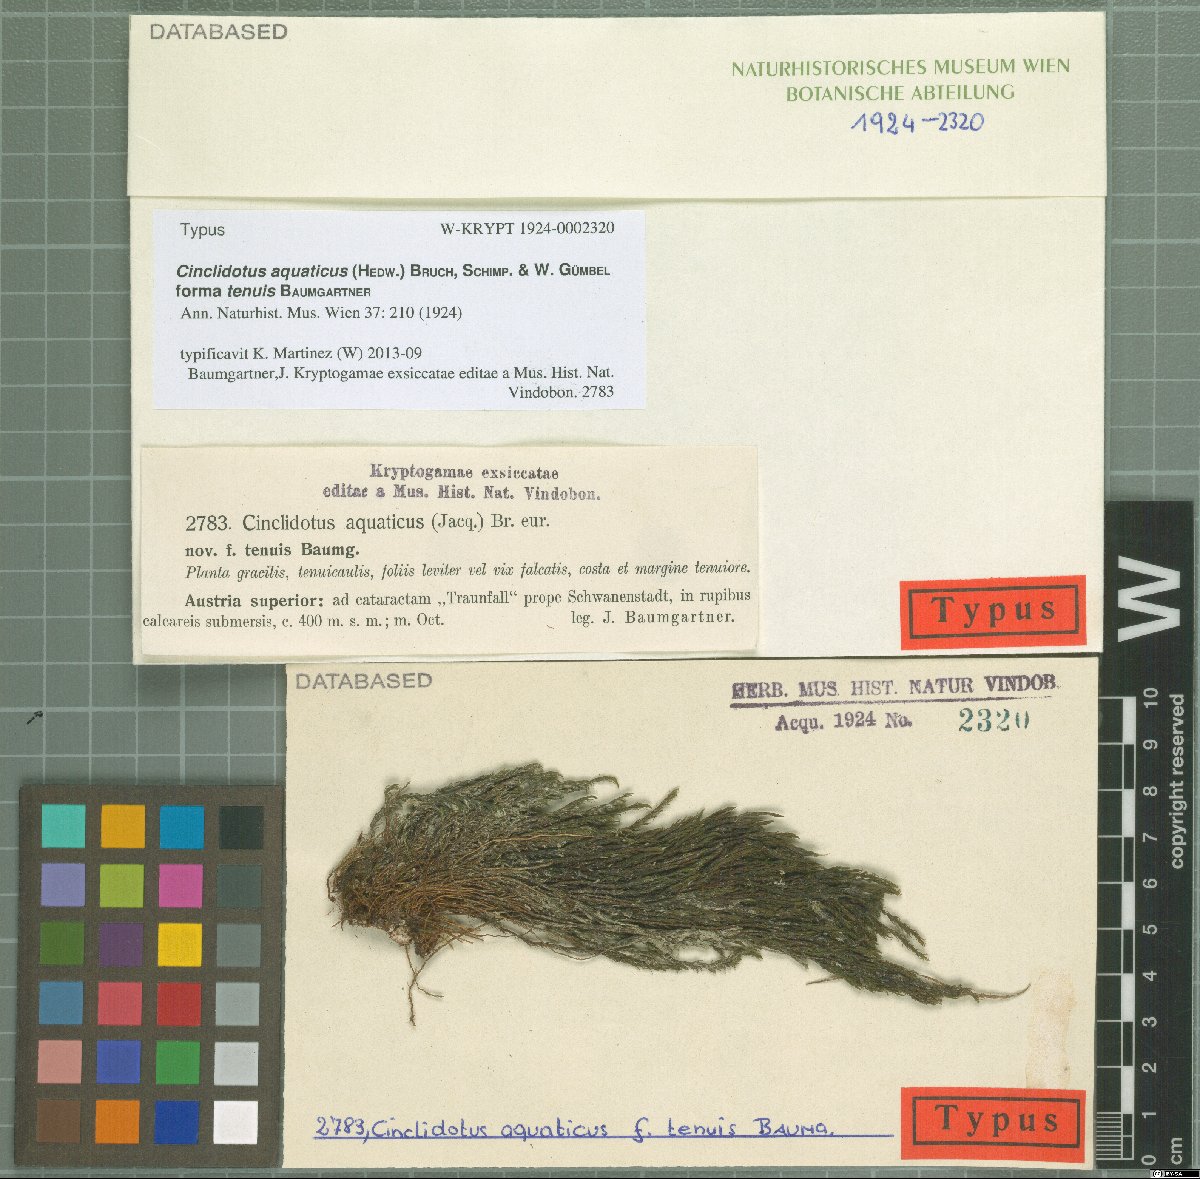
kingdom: Plantae
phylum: Bryophyta
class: Bryopsida
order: Pottiales
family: Pottiaceae
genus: Cinclidotus
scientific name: Cinclidotus aquaticus
